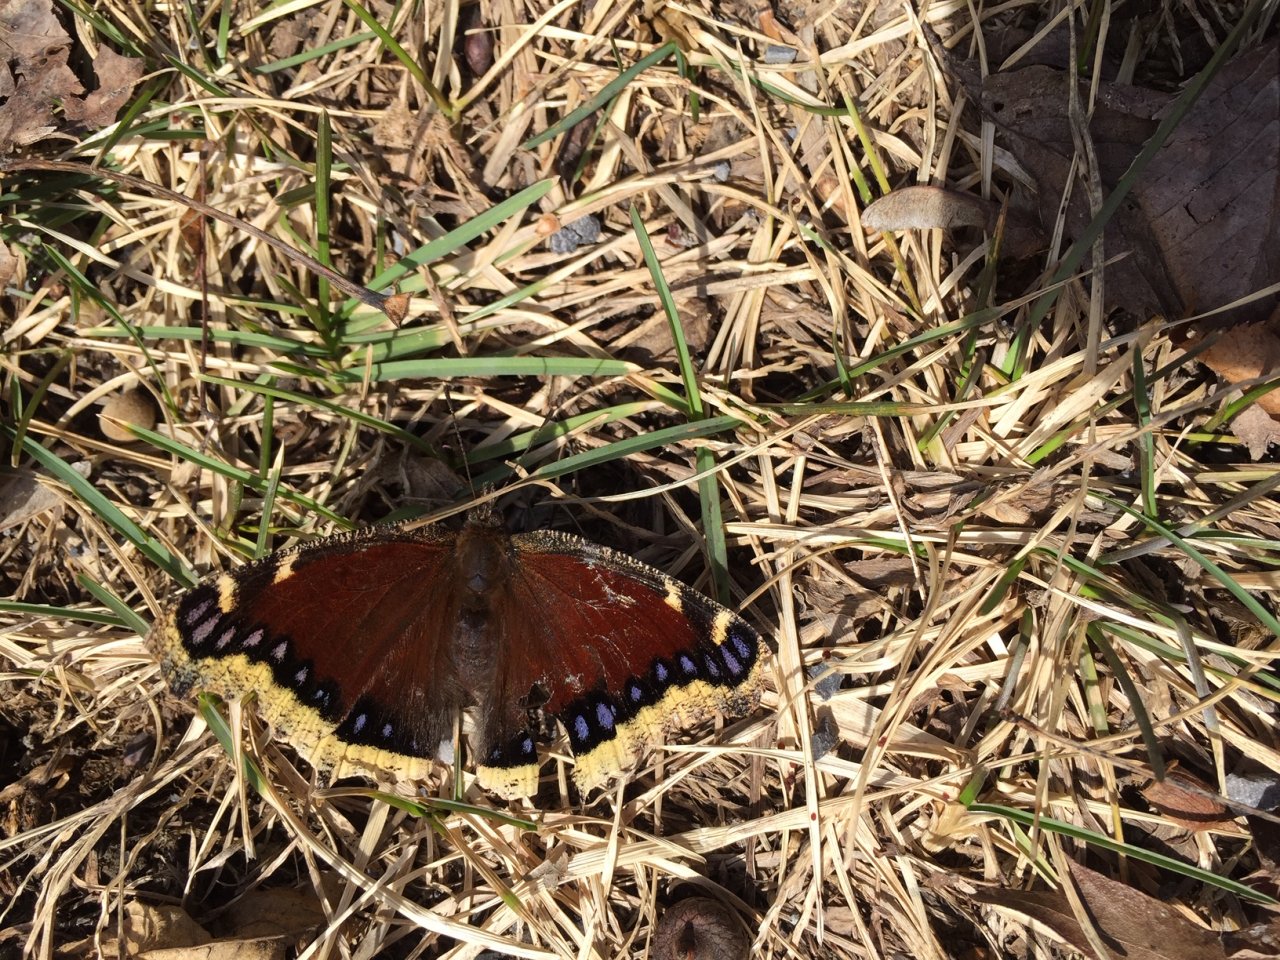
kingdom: Animalia
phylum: Arthropoda
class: Insecta
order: Lepidoptera
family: Nymphalidae
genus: Nymphalis
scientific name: Nymphalis antiopa
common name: Mourning Cloak
